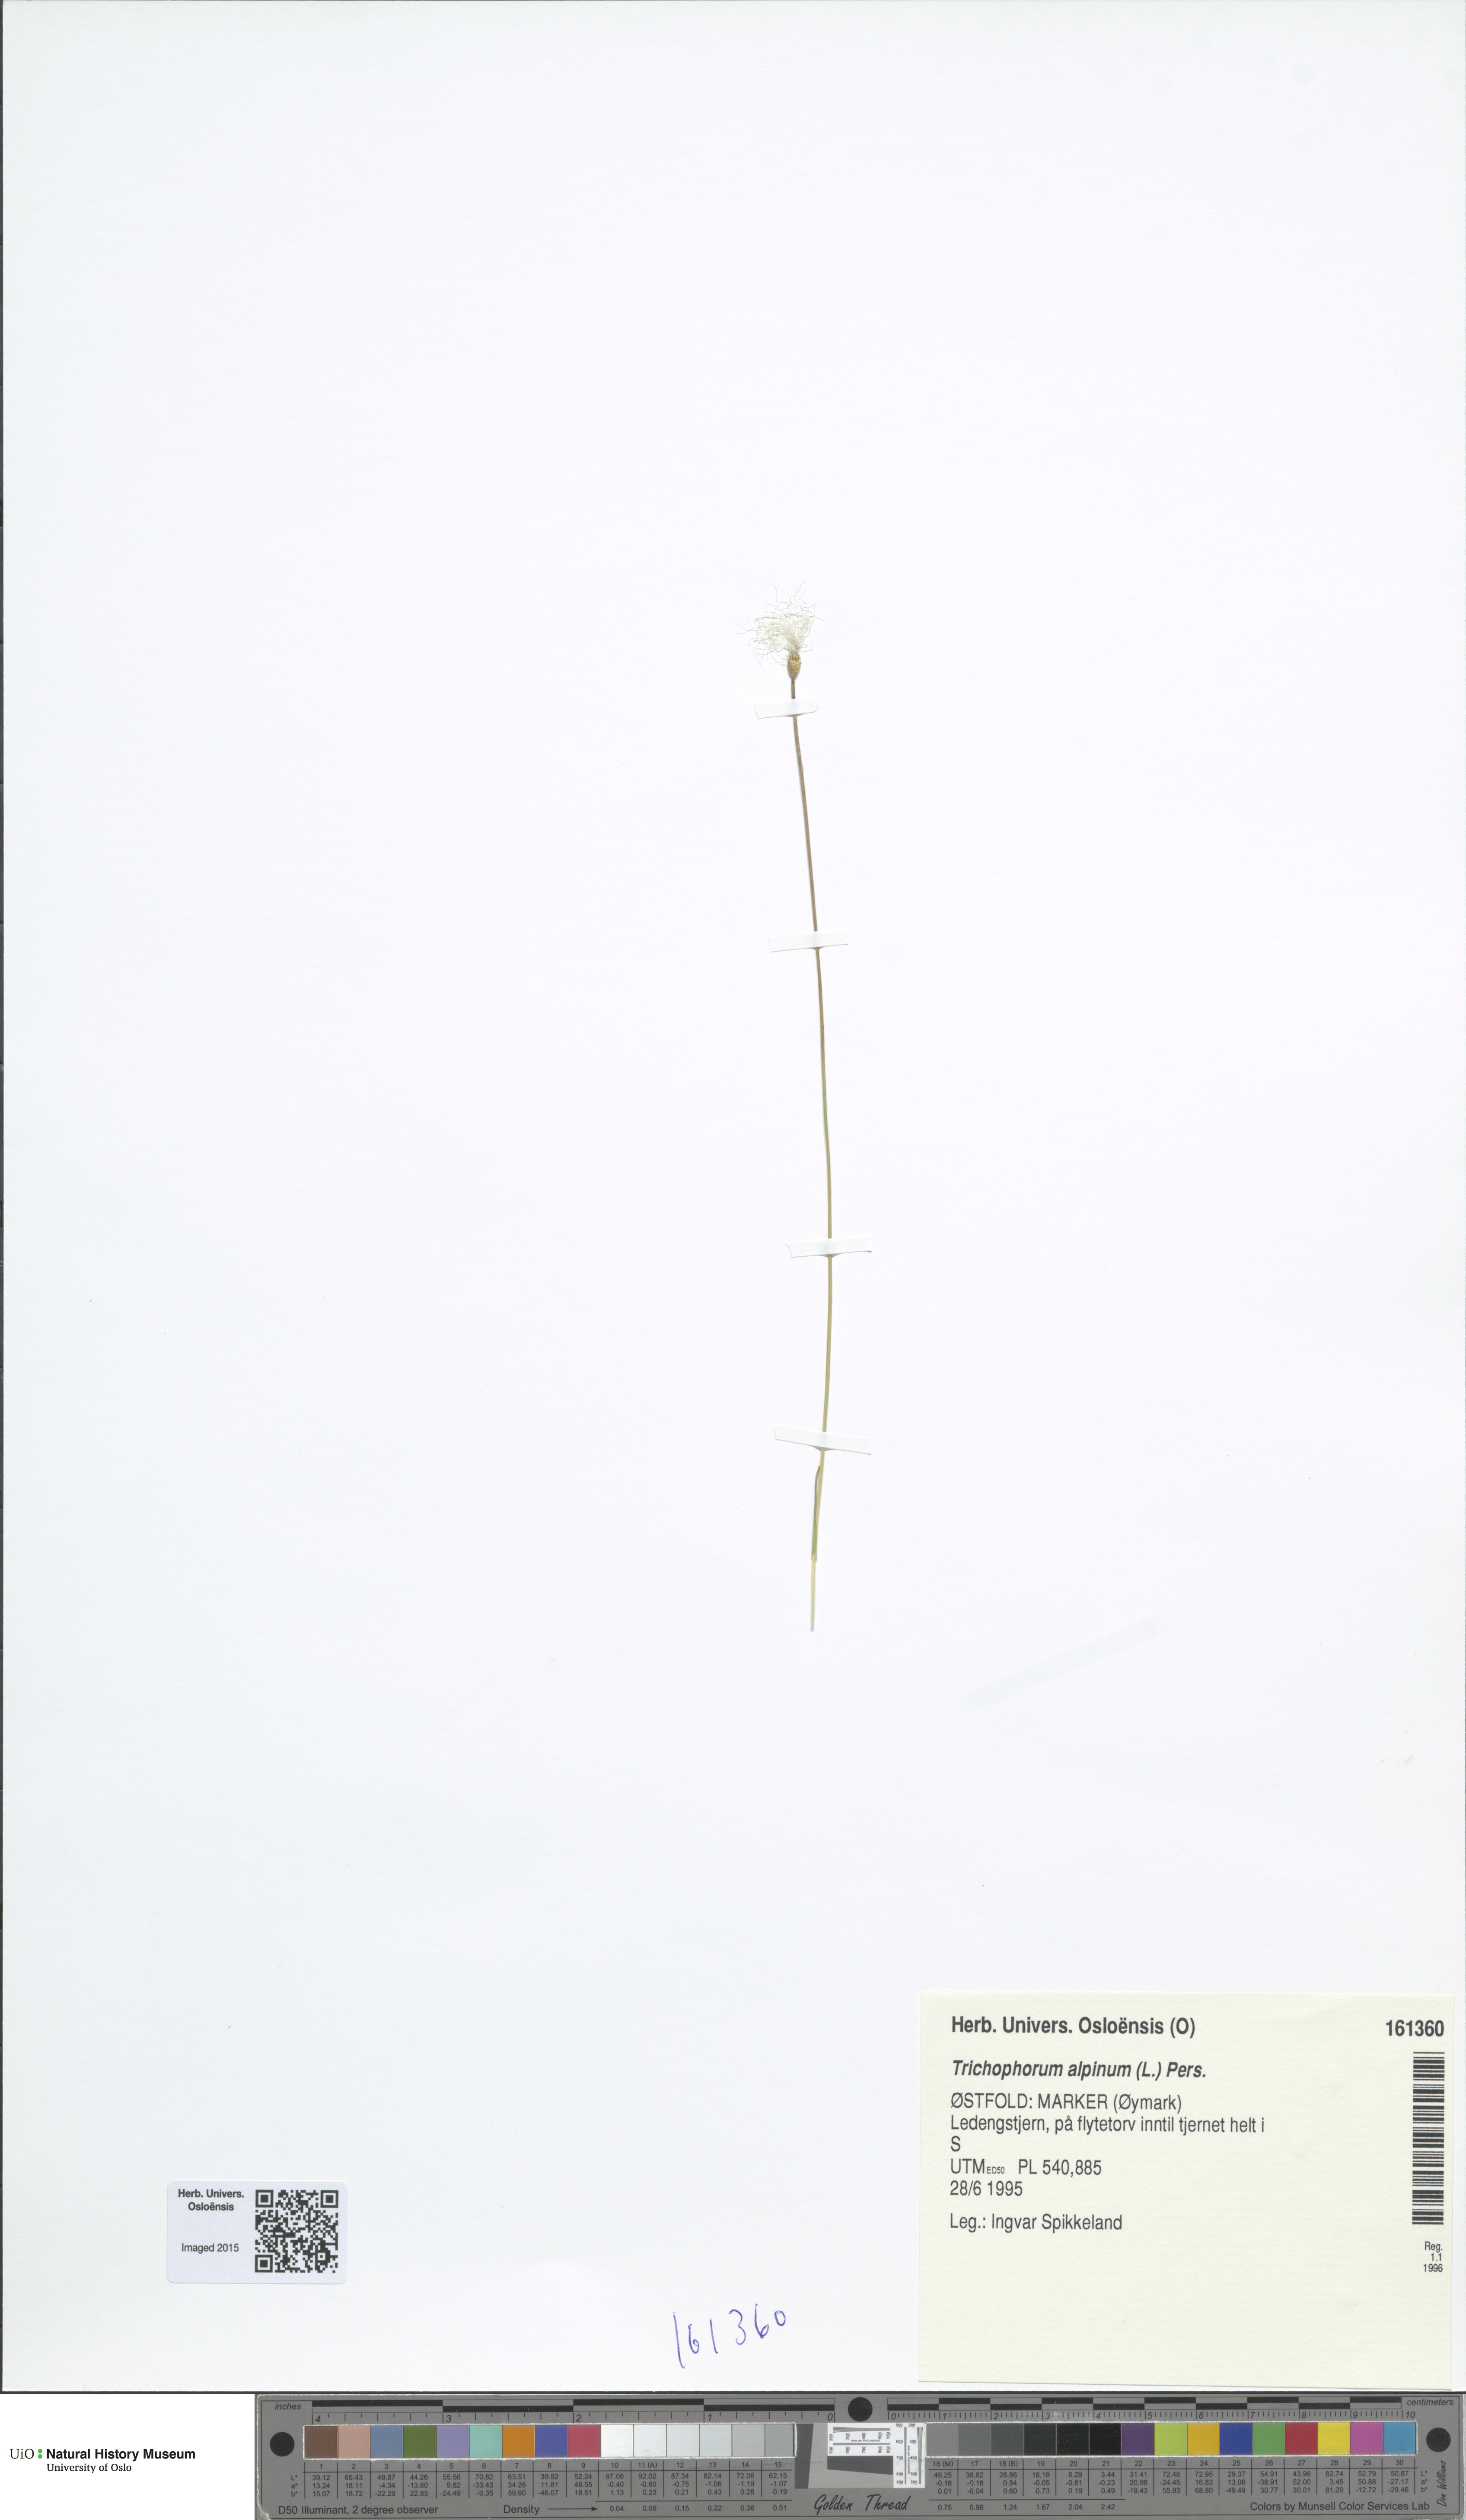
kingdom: Plantae
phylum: Tracheophyta
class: Liliopsida
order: Poales
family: Cyperaceae
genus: Trichophorum
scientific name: Trichophorum alpinum
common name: Alpine bulrush
